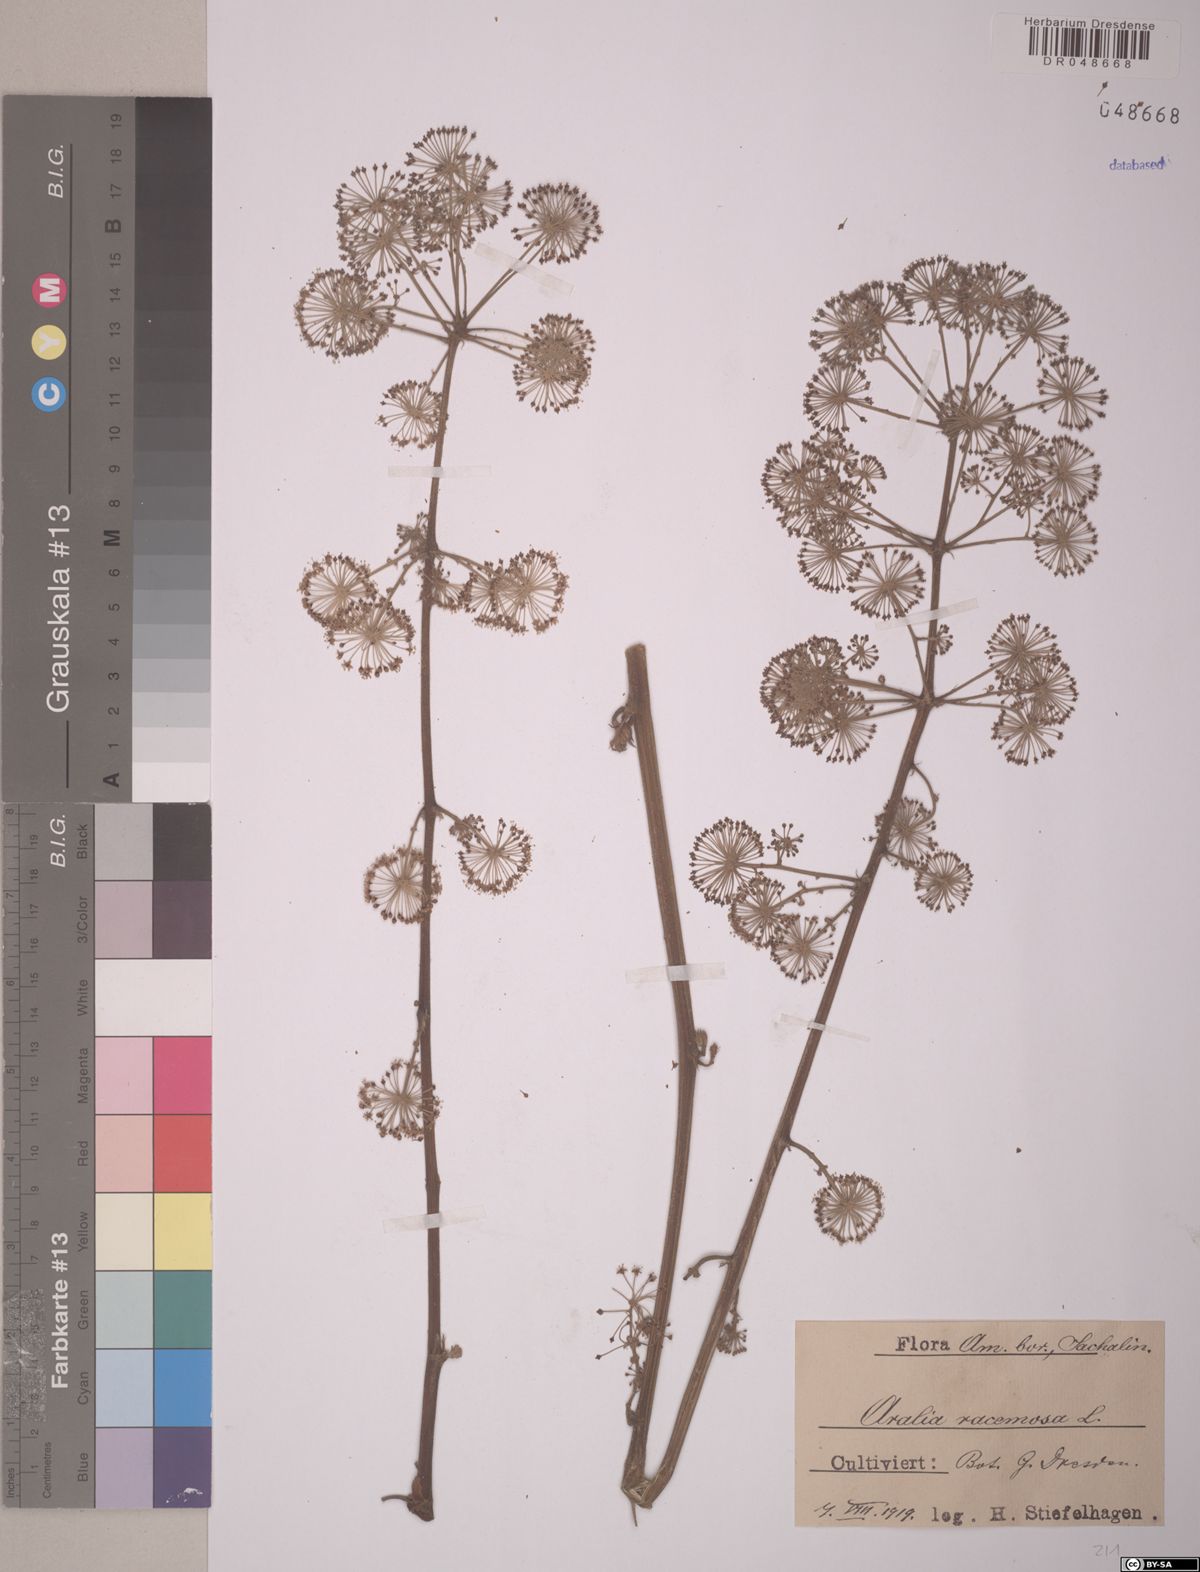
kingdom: Plantae
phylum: Tracheophyta
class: Magnoliopsida
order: Apiales
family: Araliaceae
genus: Aralia
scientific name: Aralia racemosa
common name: American-spikenard
